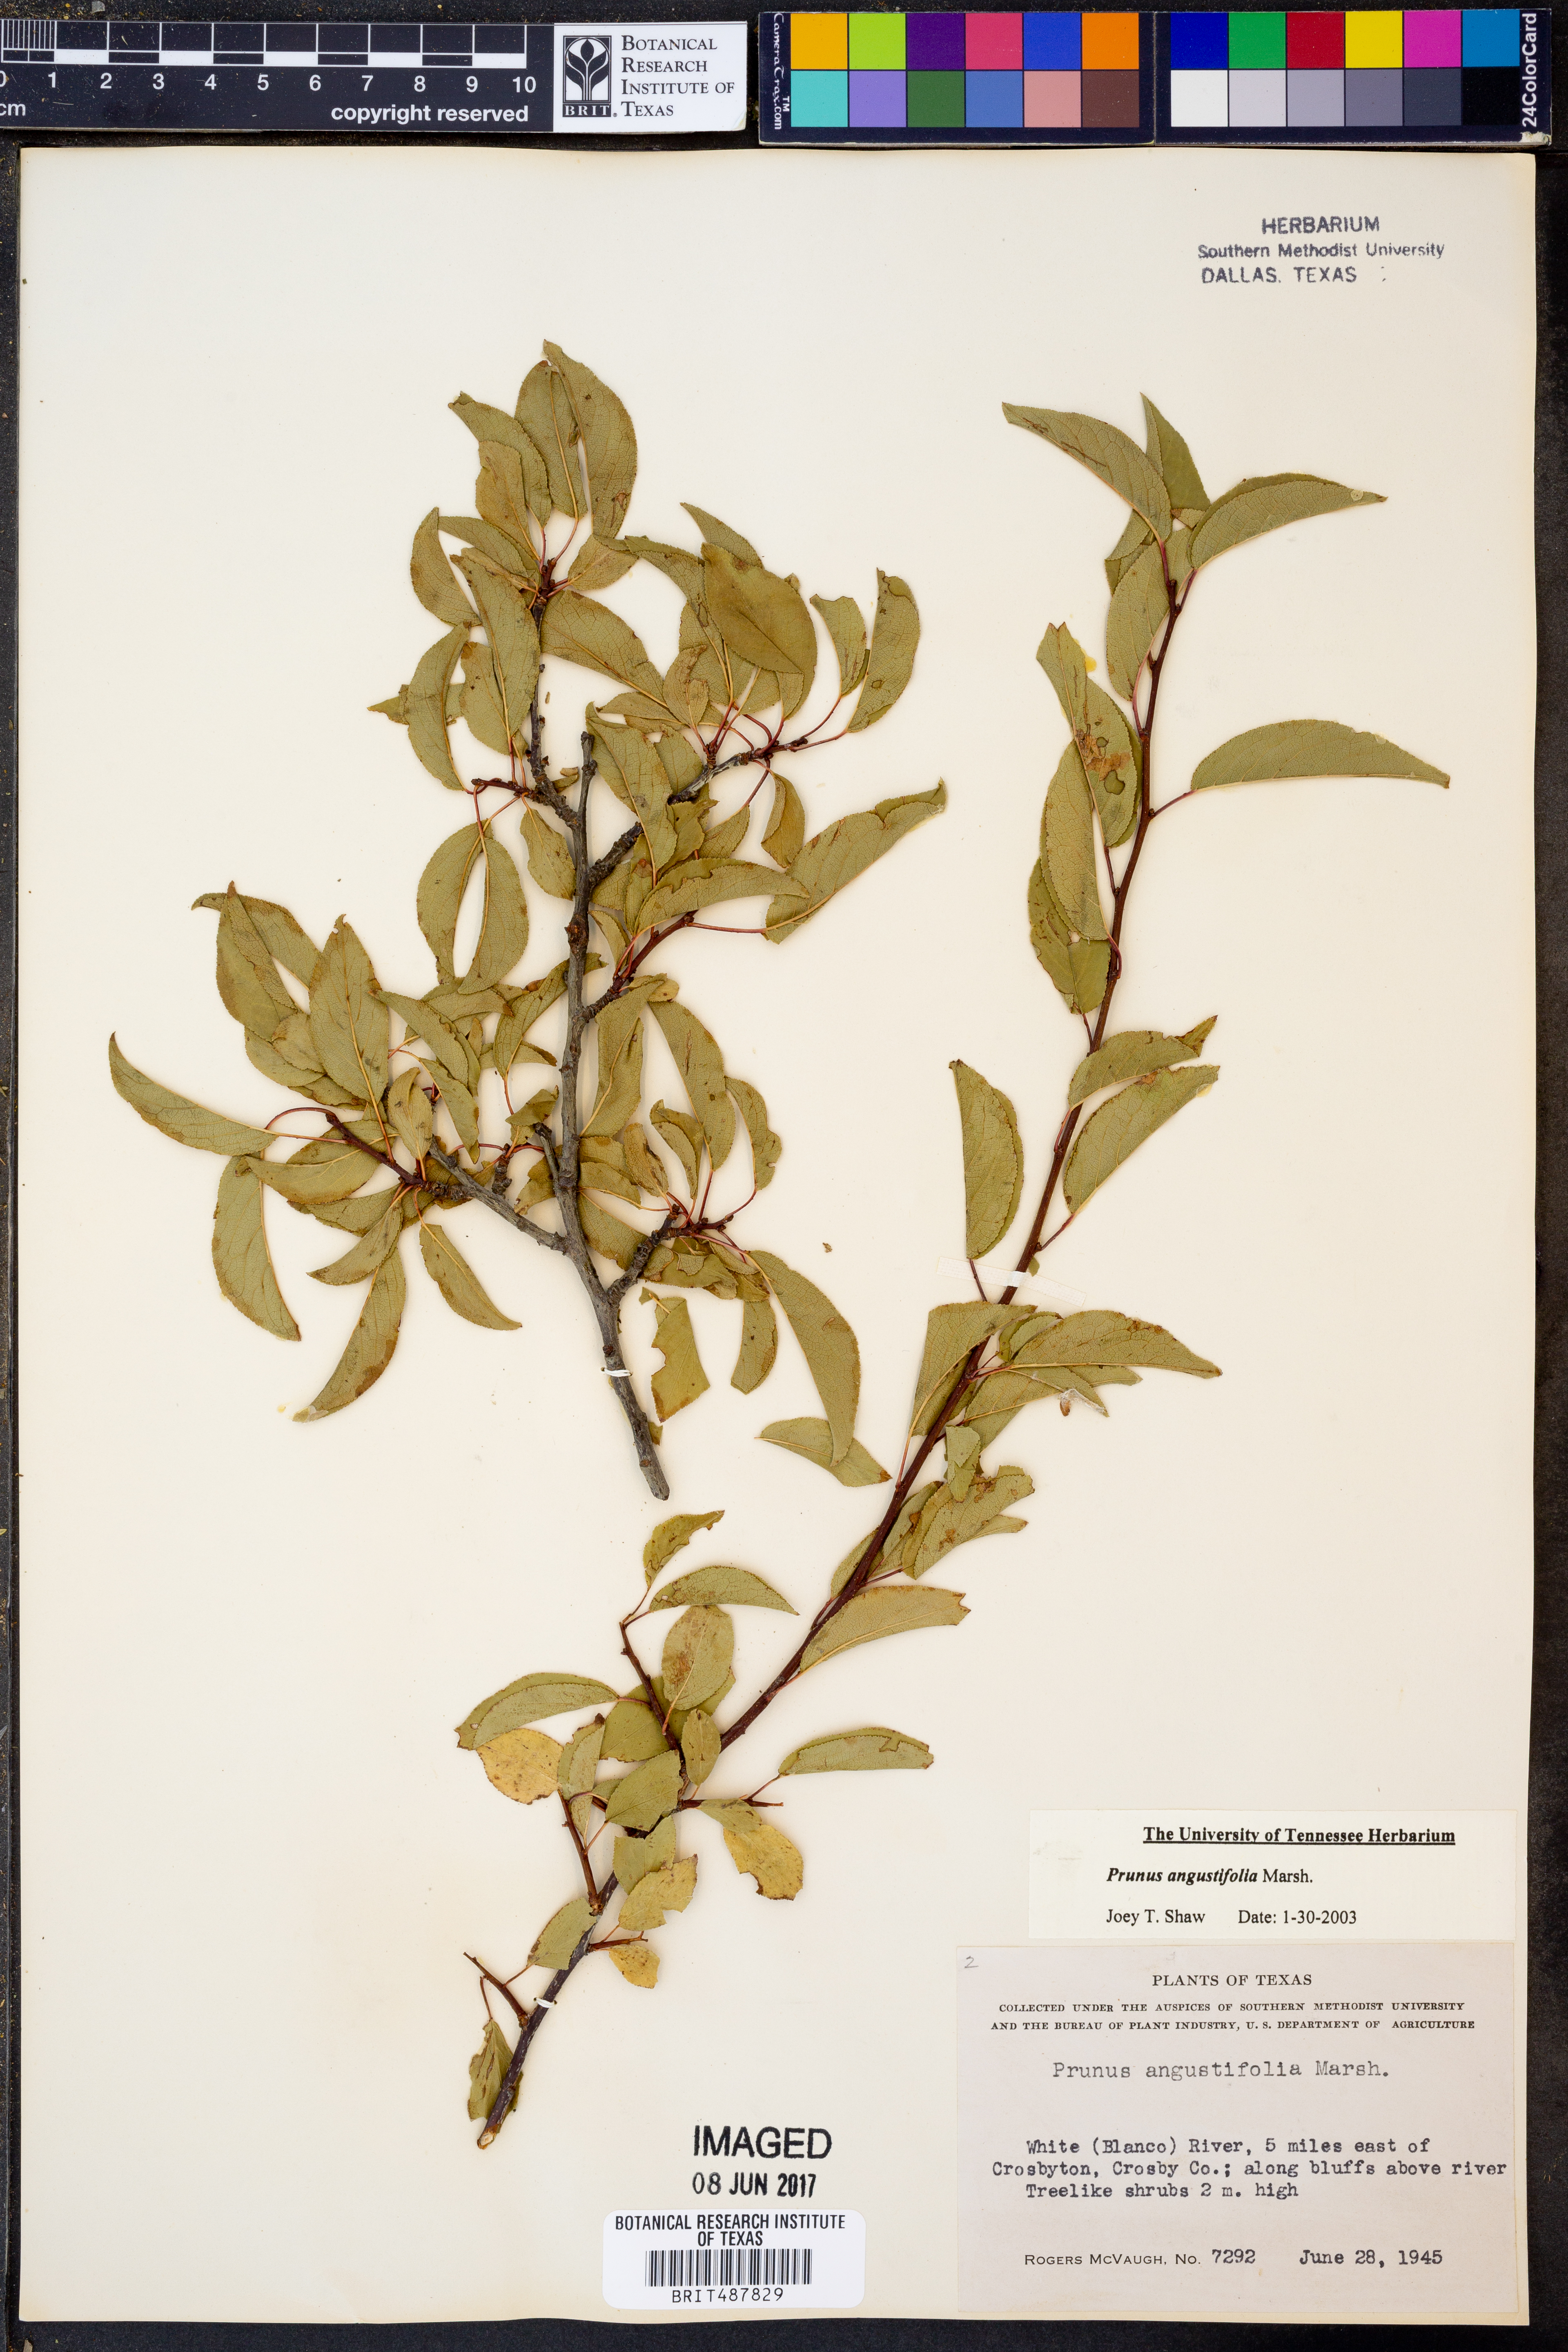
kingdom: Plantae
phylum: Tracheophyta
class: Magnoliopsida
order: Rosales
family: Rosaceae
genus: Prunus
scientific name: Prunus angustifolia
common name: Cherokee plum
